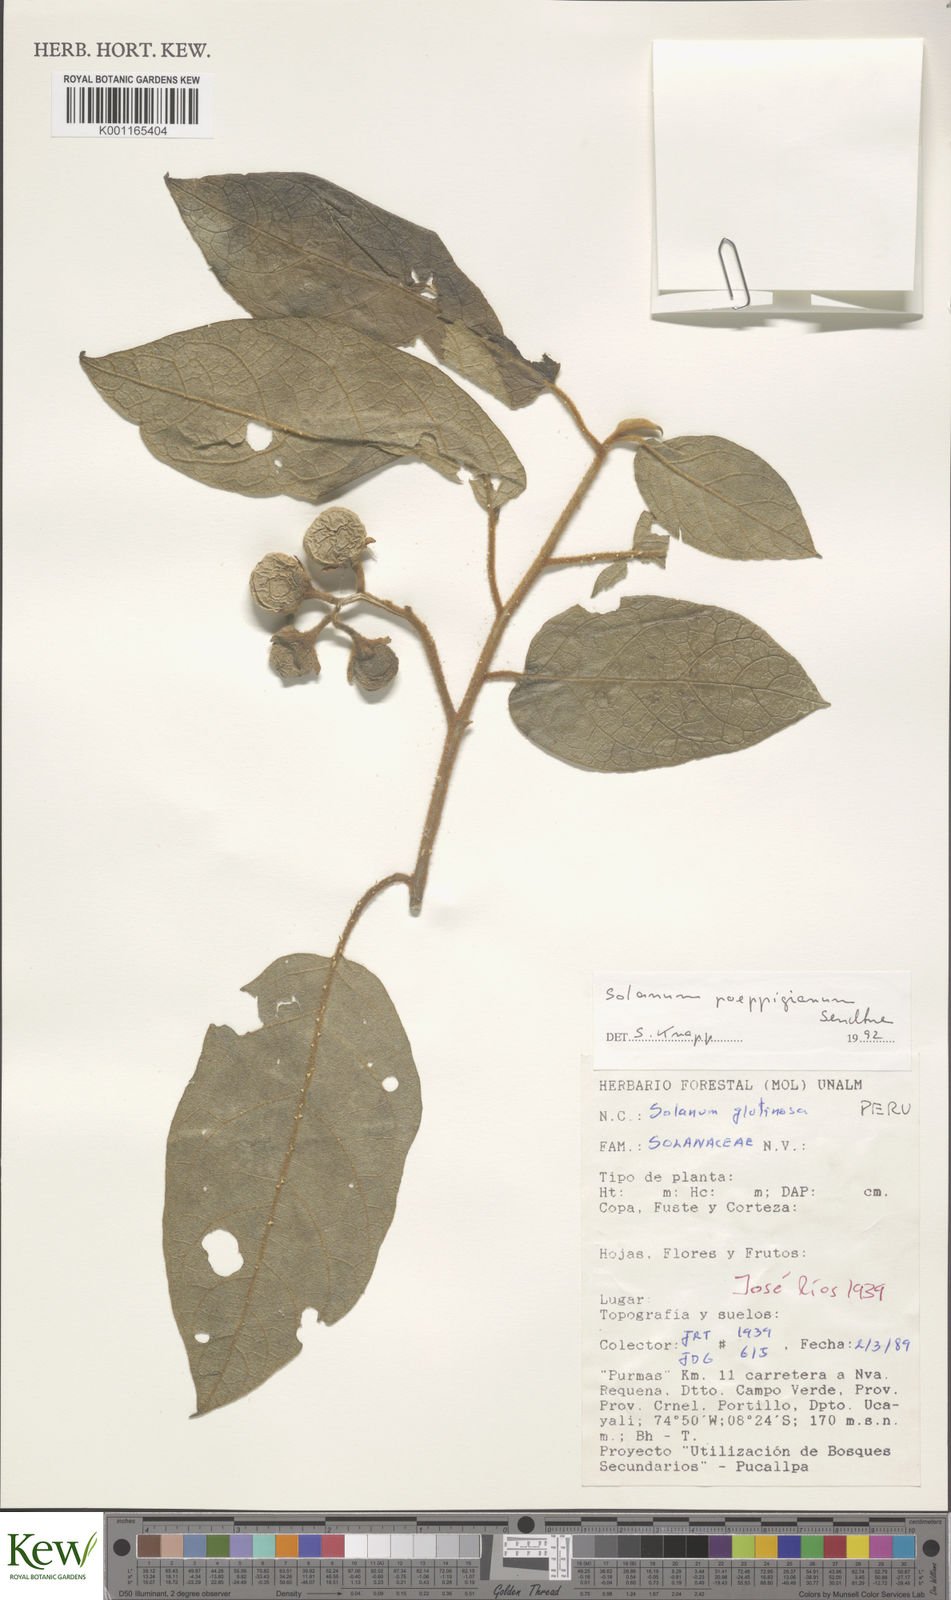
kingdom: Plantae
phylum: Tracheophyta
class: Magnoliopsida
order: Solanales
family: Solanaceae
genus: Solanum
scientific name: Solanum valdiviense
